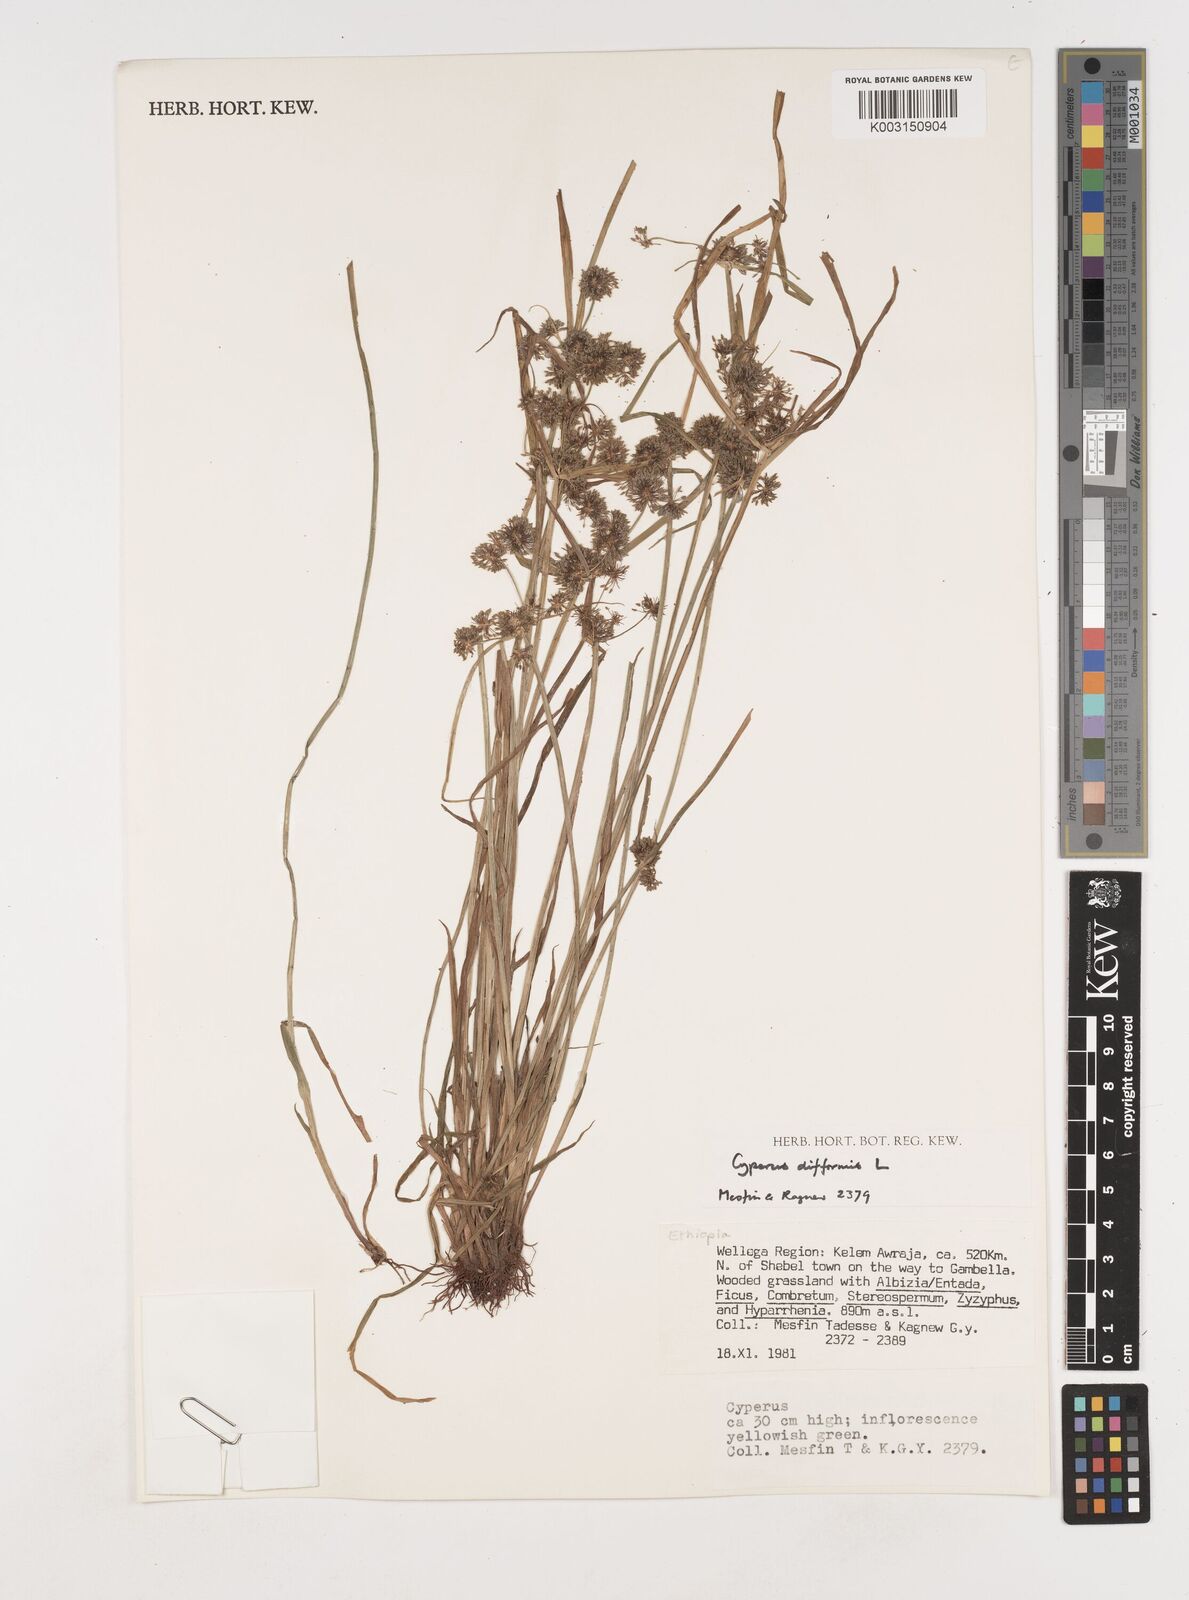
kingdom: Plantae
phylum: Tracheophyta
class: Liliopsida
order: Poales
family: Cyperaceae
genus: Cyperus
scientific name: Cyperus difformis
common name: Variable flatsedge
